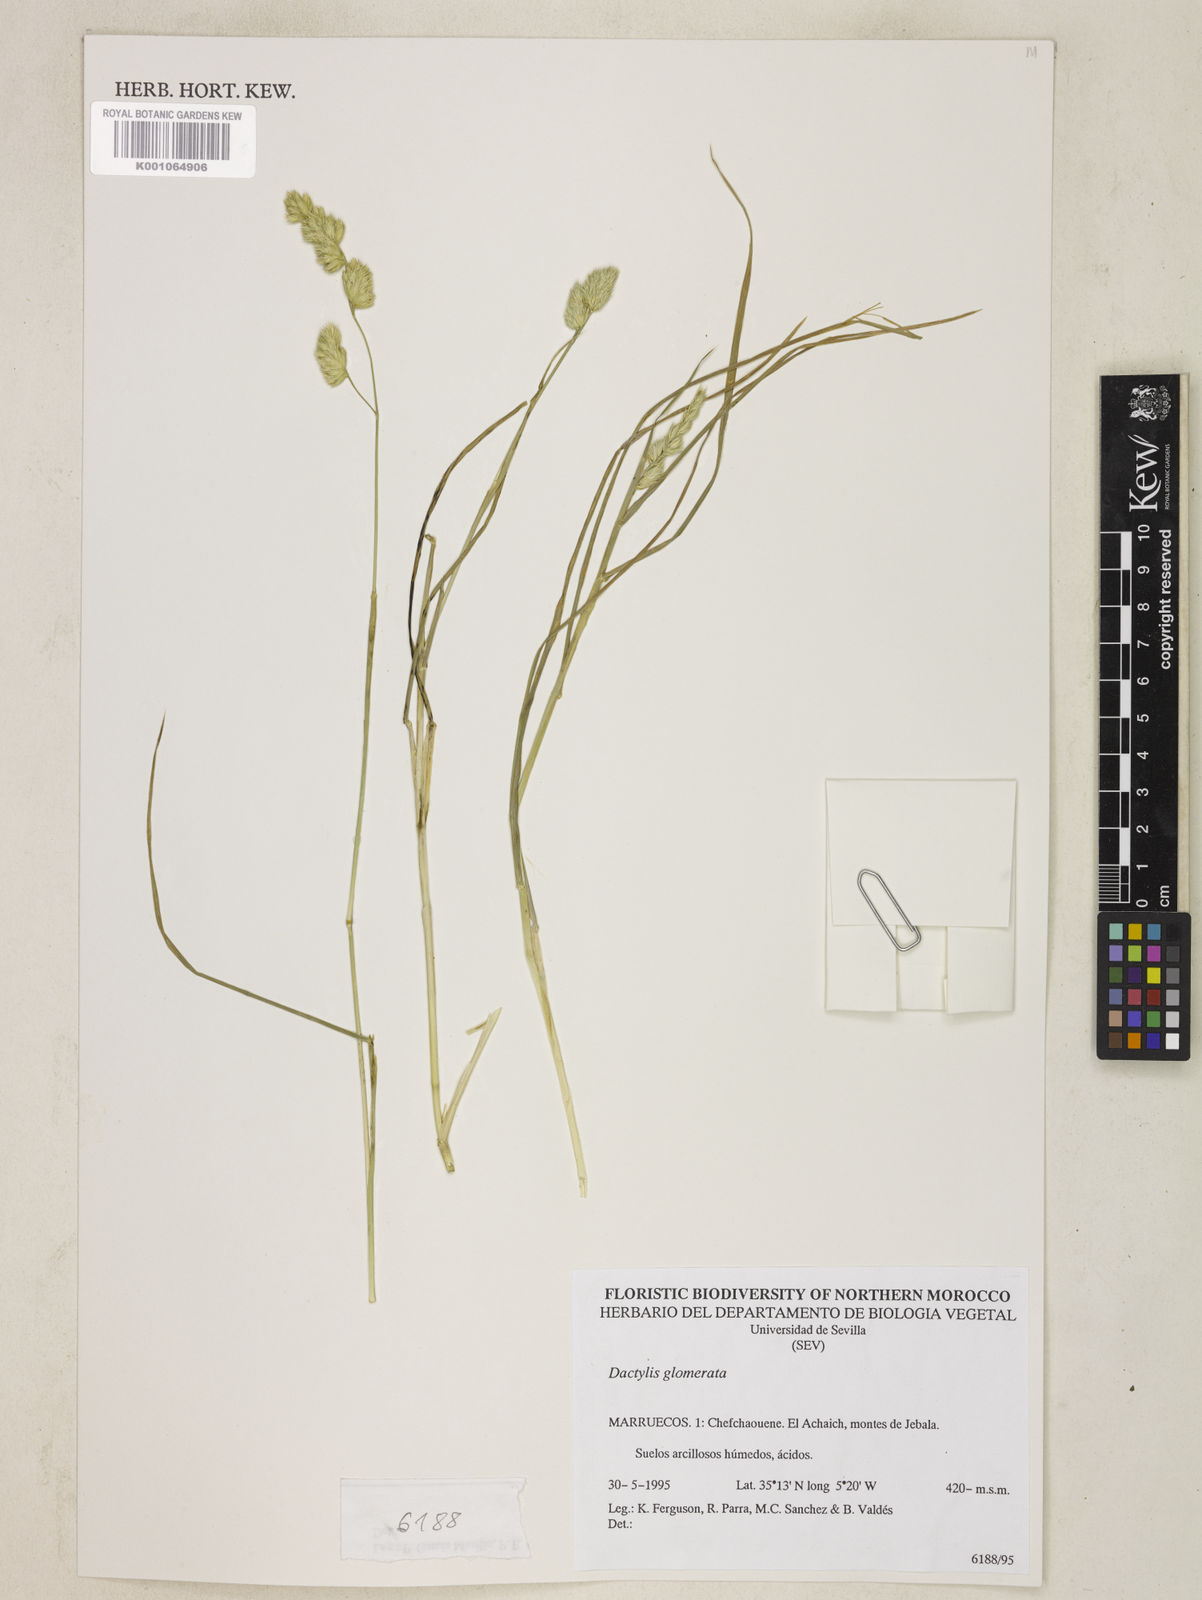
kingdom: Plantae
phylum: Tracheophyta
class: Liliopsida
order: Poales
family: Poaceae
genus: Dactylis
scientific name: Dactylis glomerata
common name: Orchardgrass
